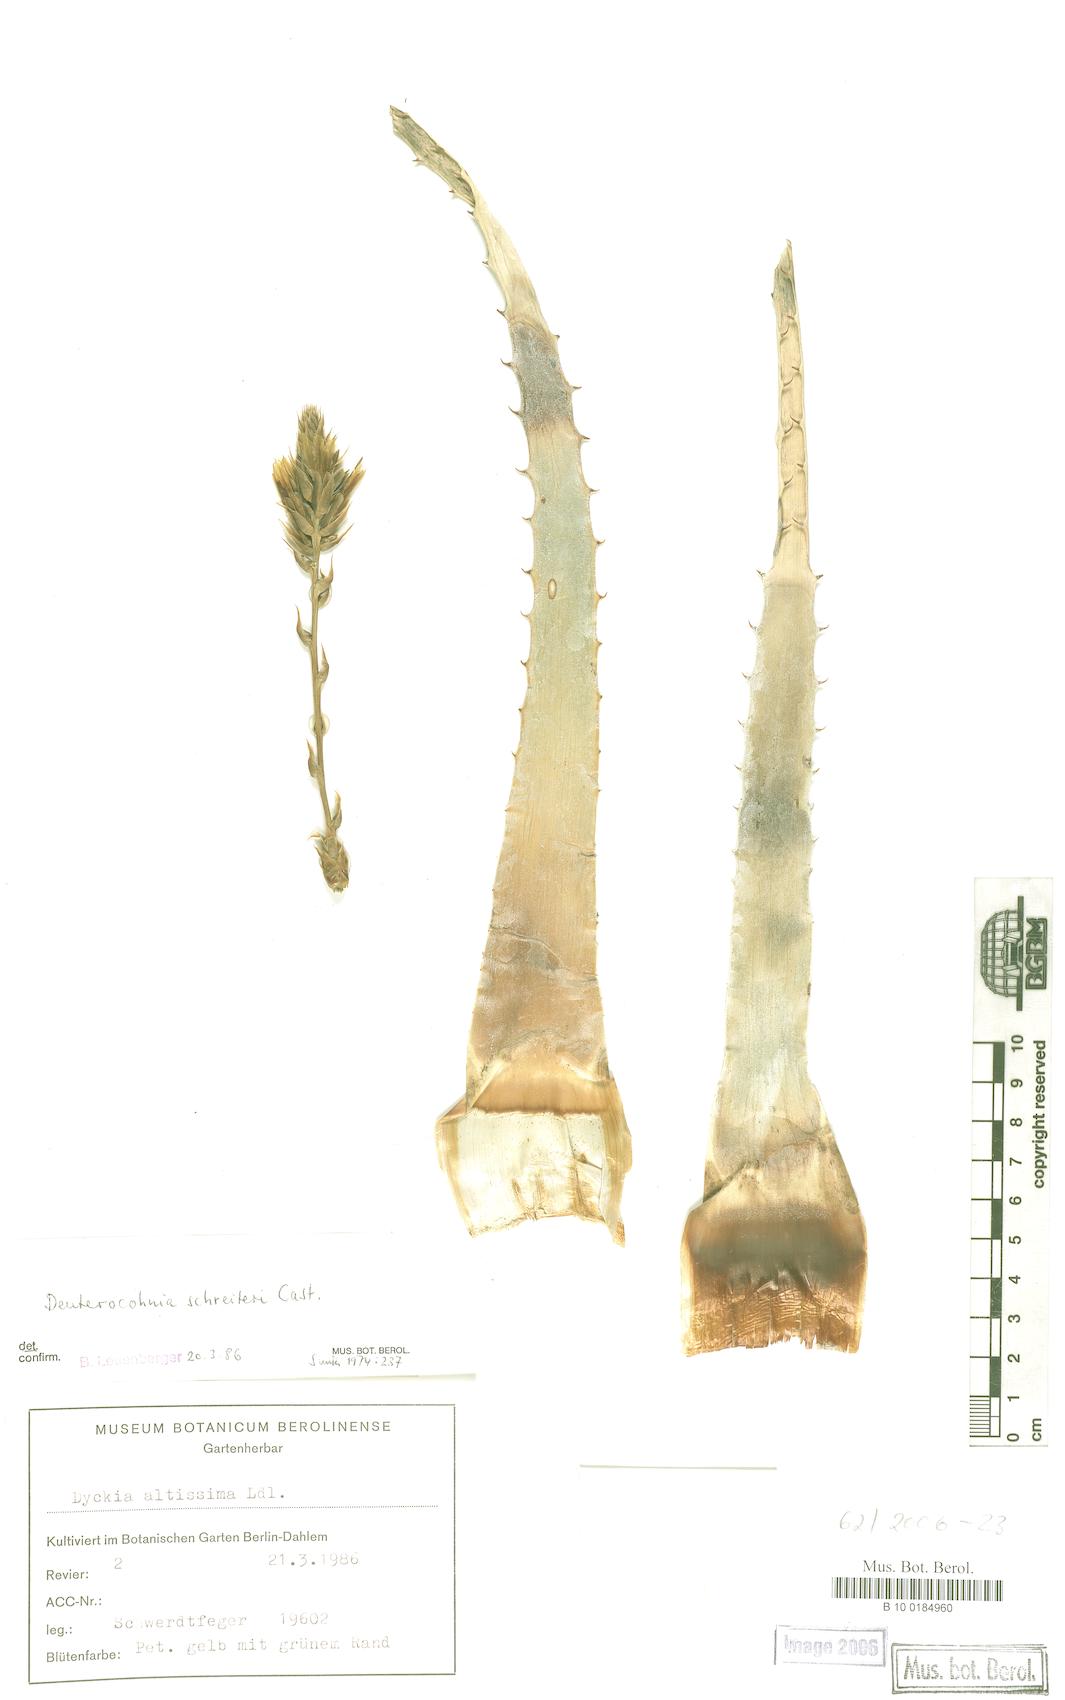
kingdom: Plantae
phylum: Tracheophyta
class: Liliopsida
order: Poales
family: Bromeliaceae
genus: Deuterocohnia
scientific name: Deuterocohnia schreiteri
